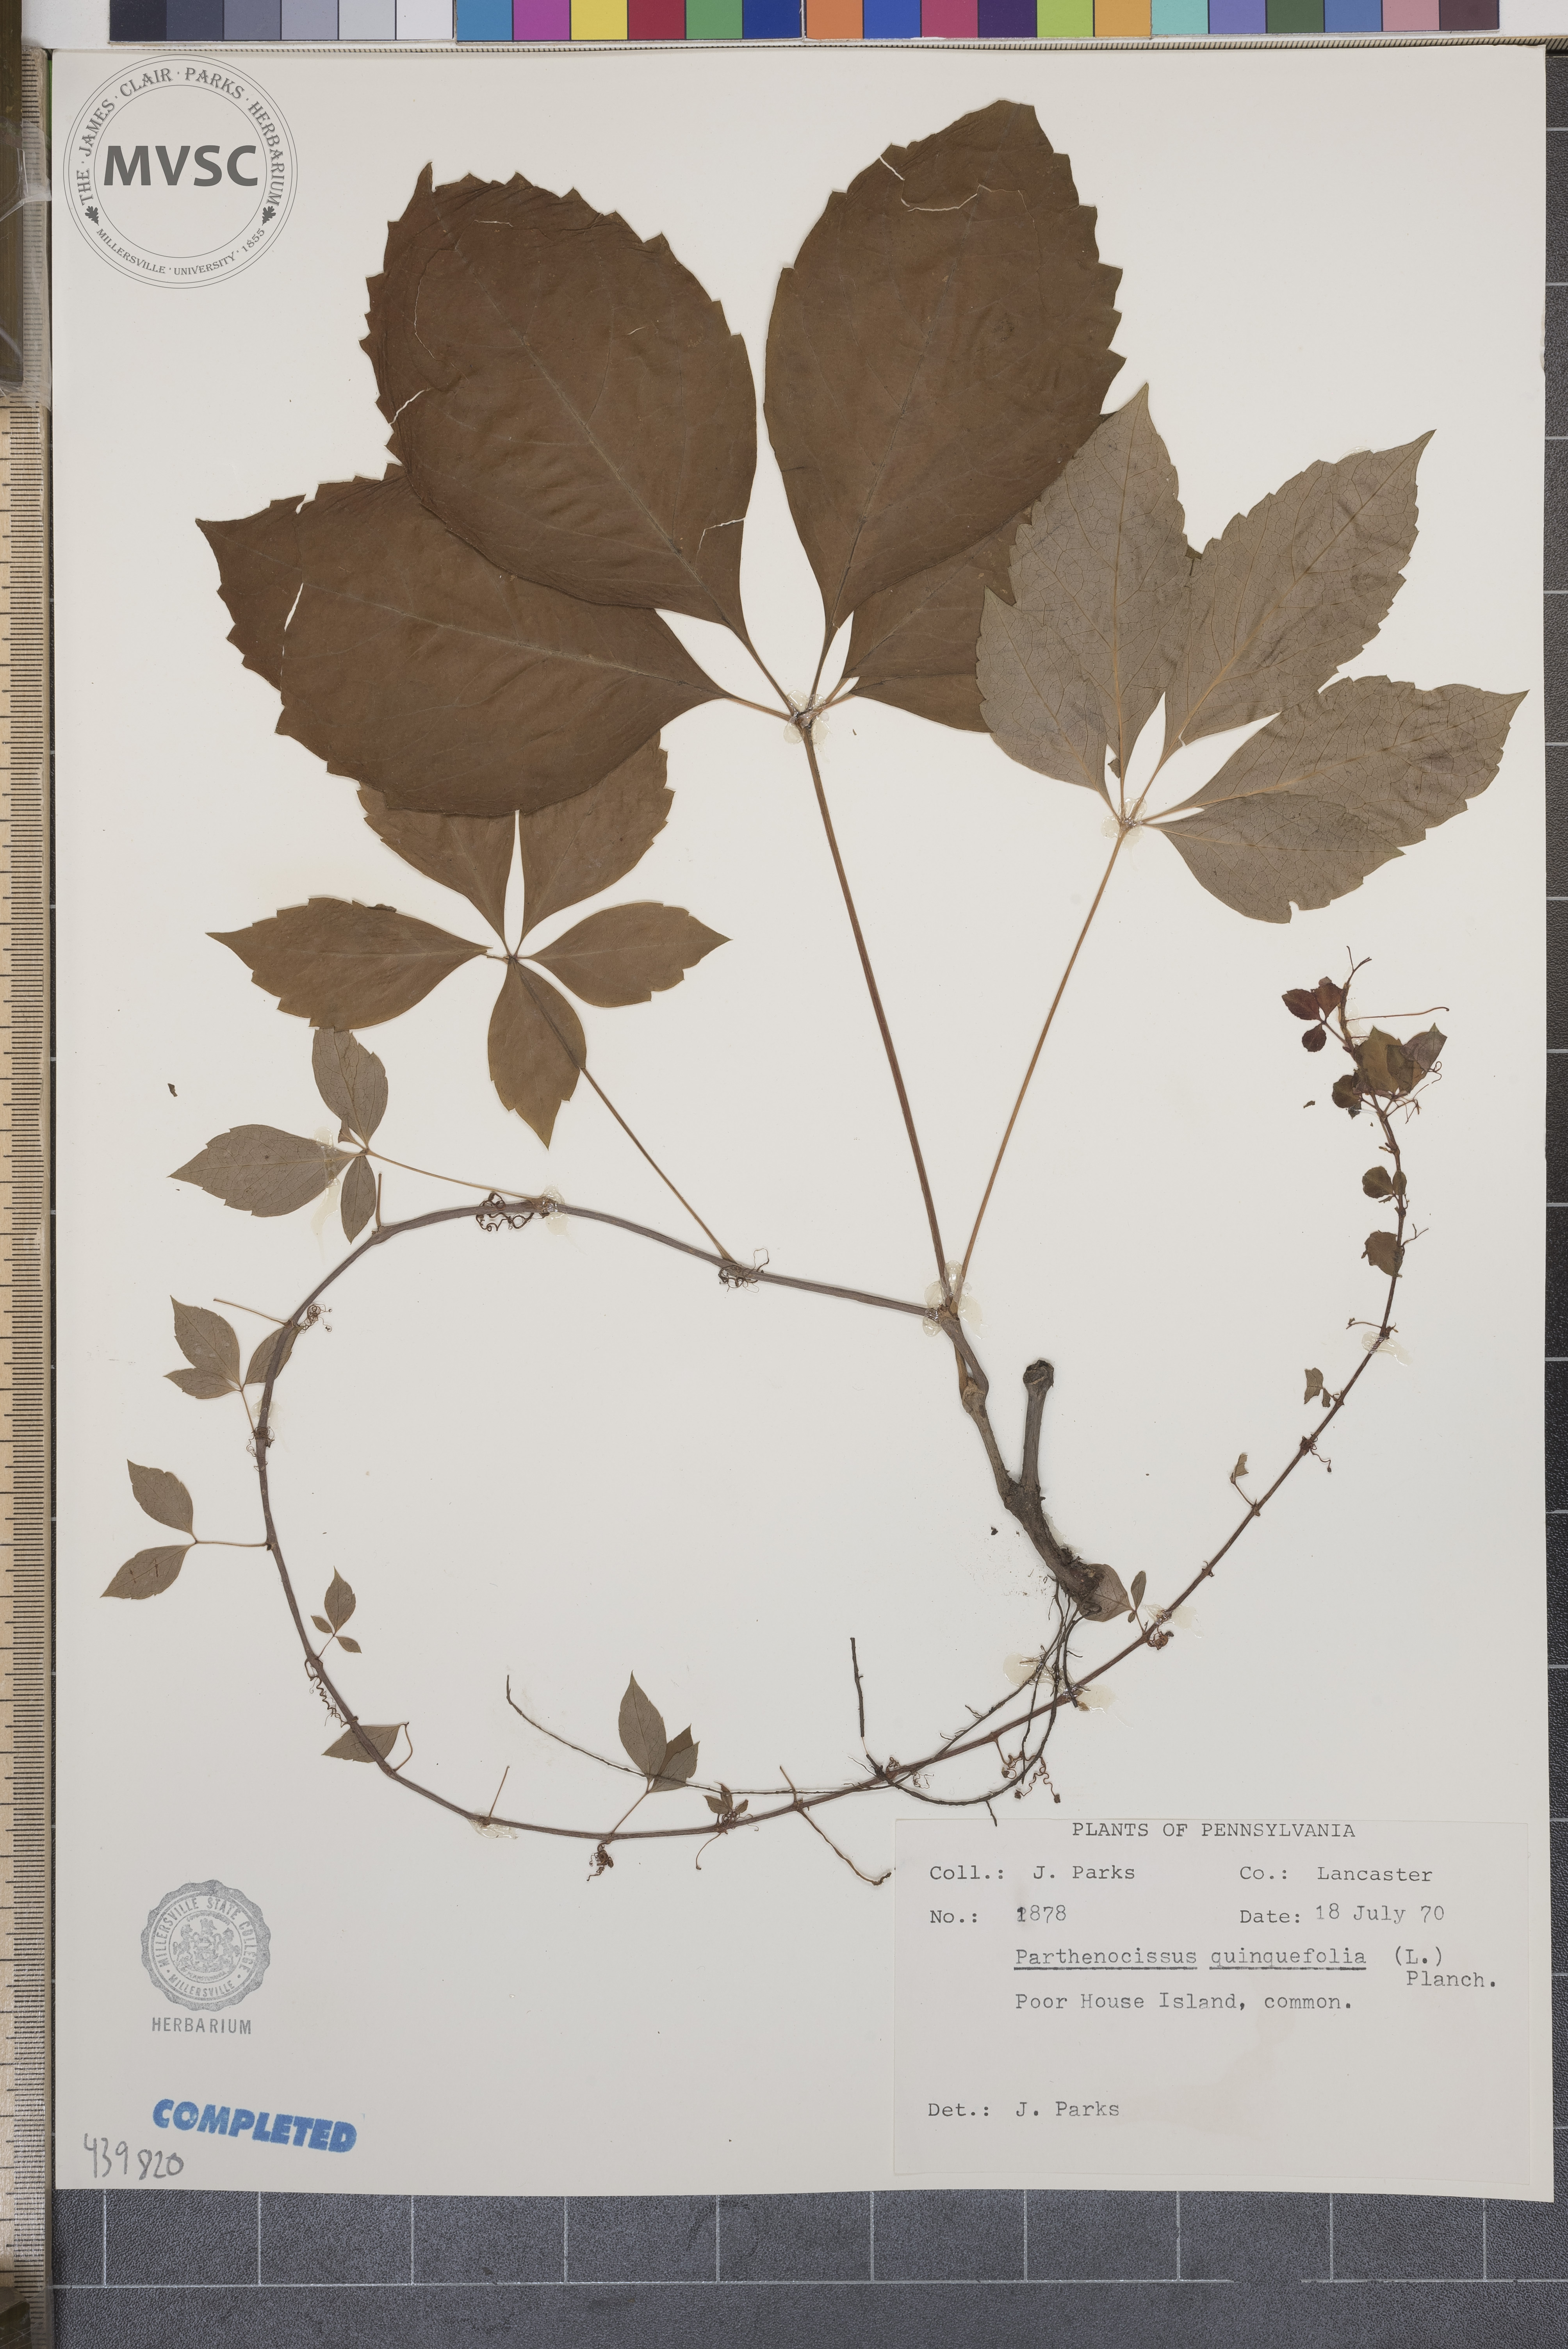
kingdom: Plantae
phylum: Tracheophyta
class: Magnoliopsida
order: Vitales
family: Vitaceae
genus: Parthenocissus
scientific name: Parthenocissus quinquefolia
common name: Virginia-creeper
